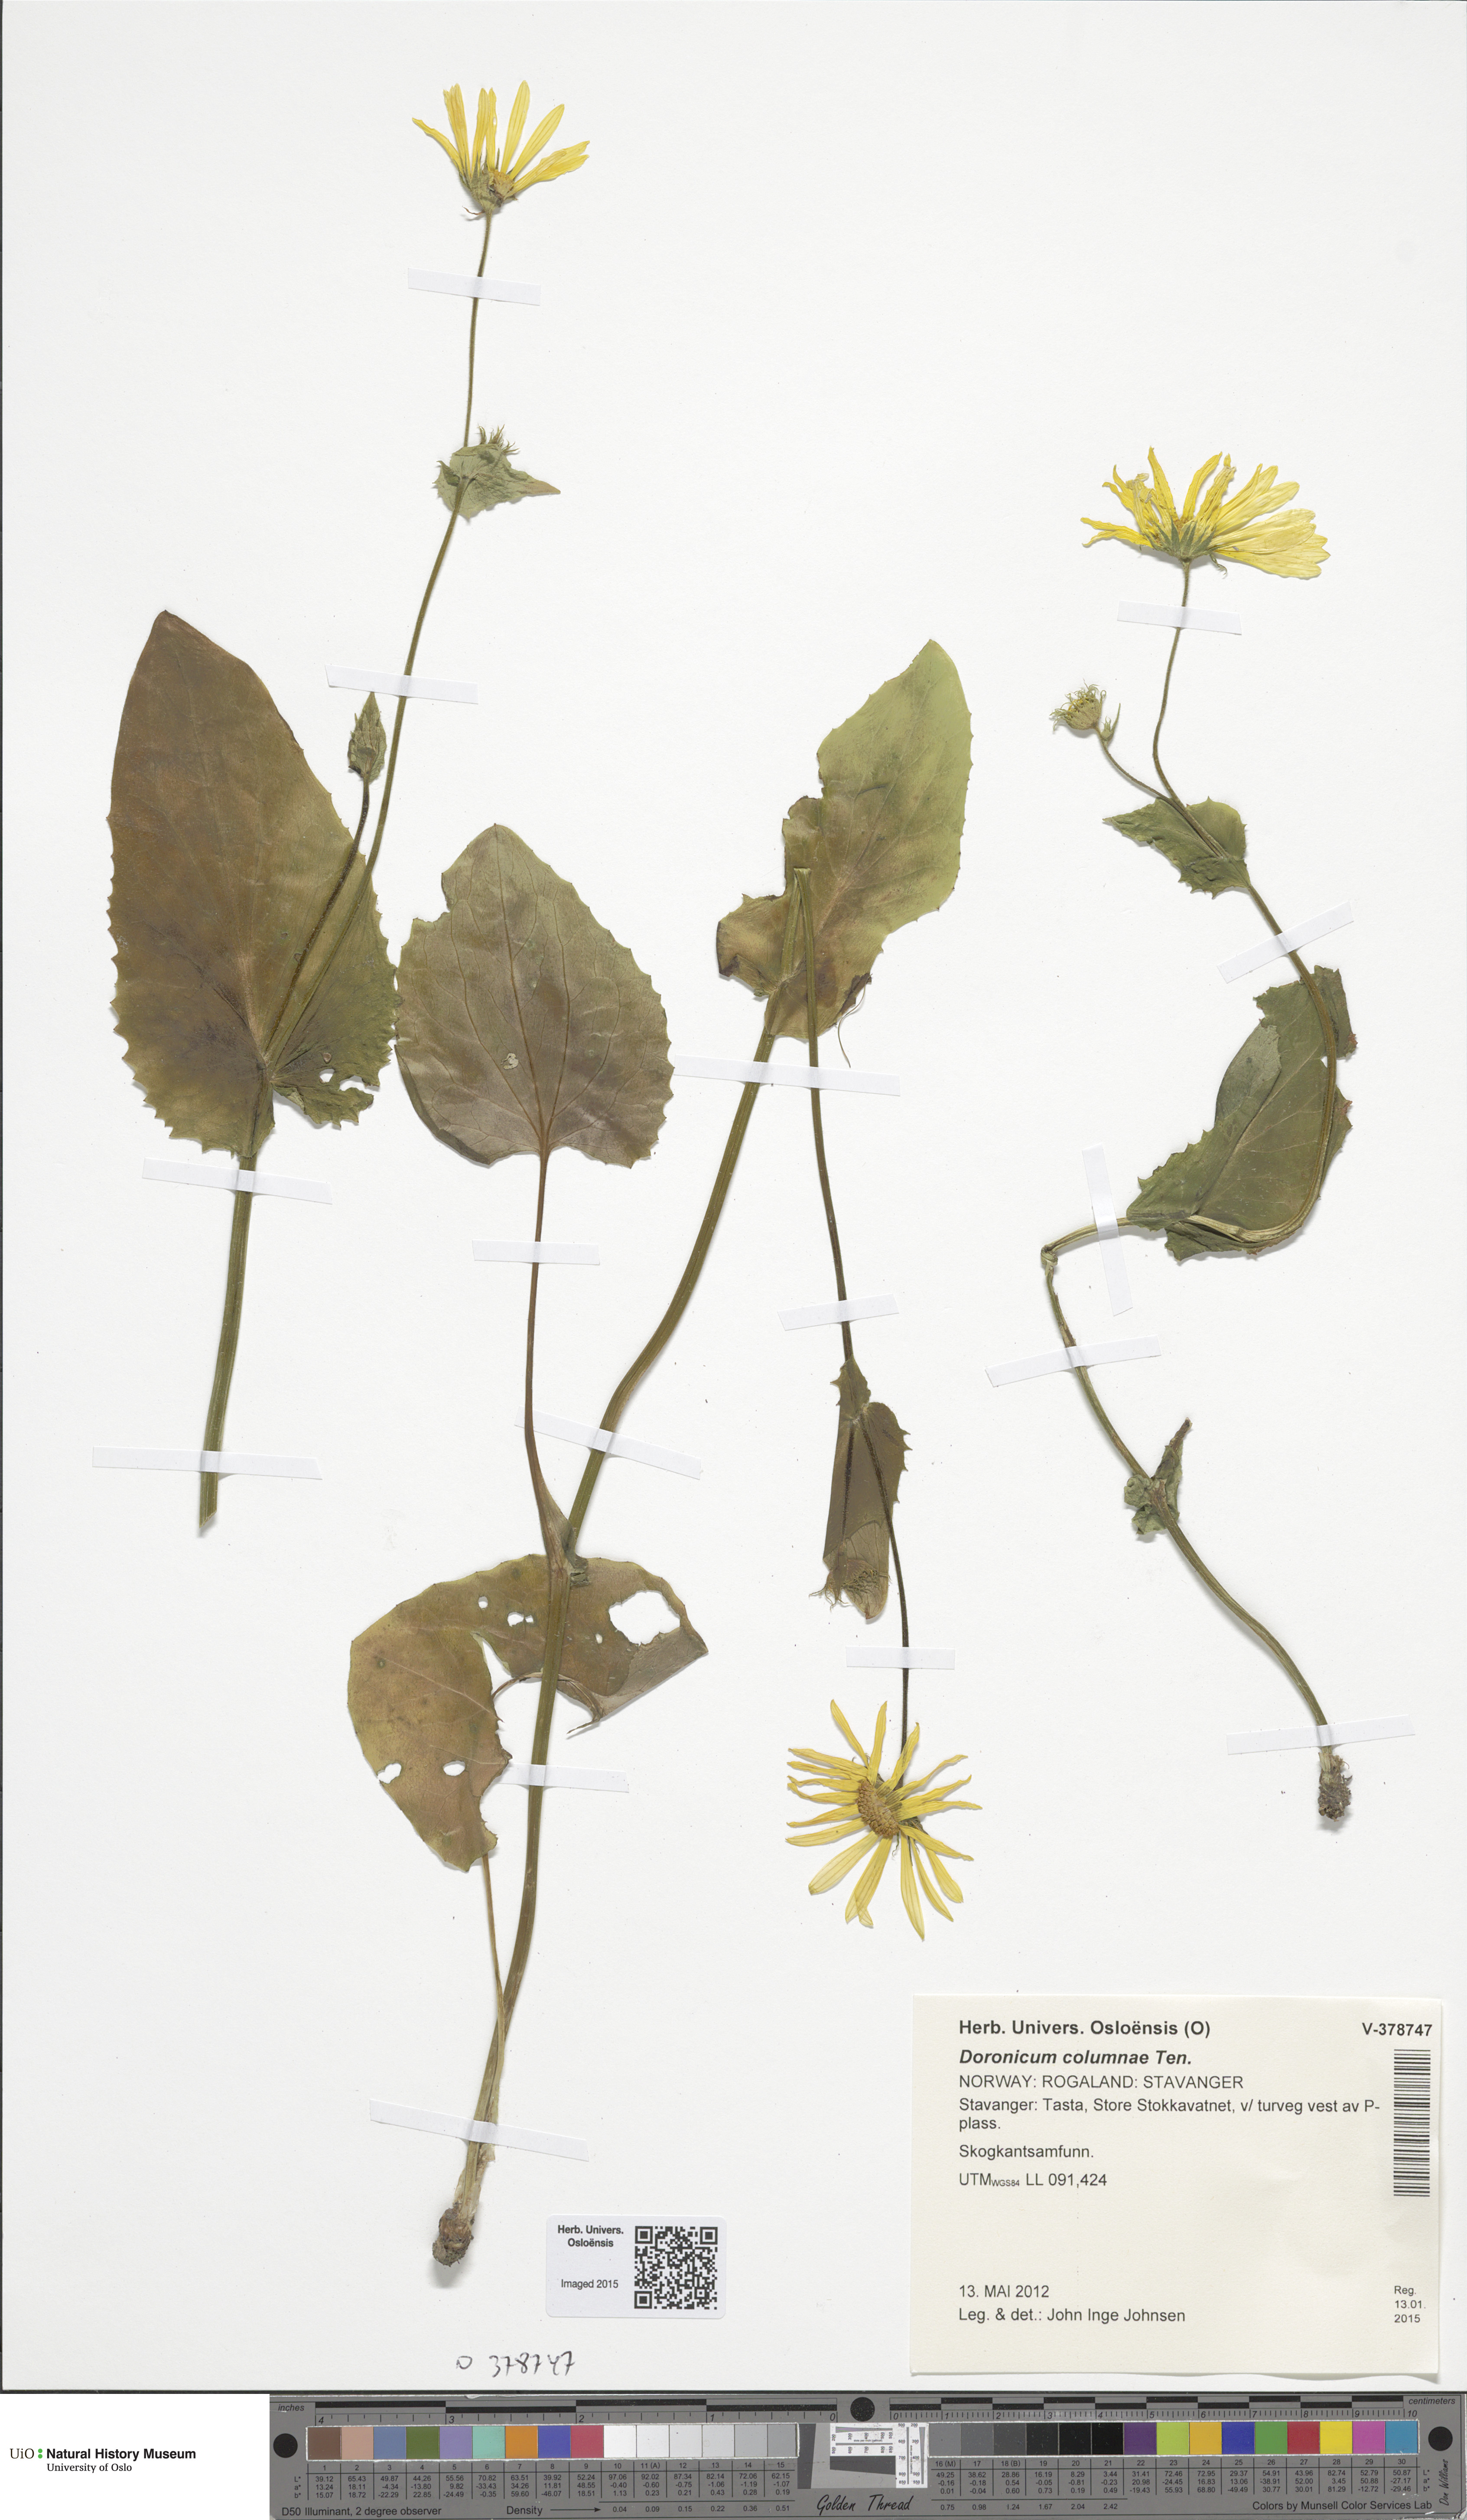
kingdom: Plantae
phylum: Tracheophyta
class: Magnoliopsida
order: Asterales
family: Asteraceae
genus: Doronicum
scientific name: Doronicum orientale
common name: Oriental leopard's-bane
